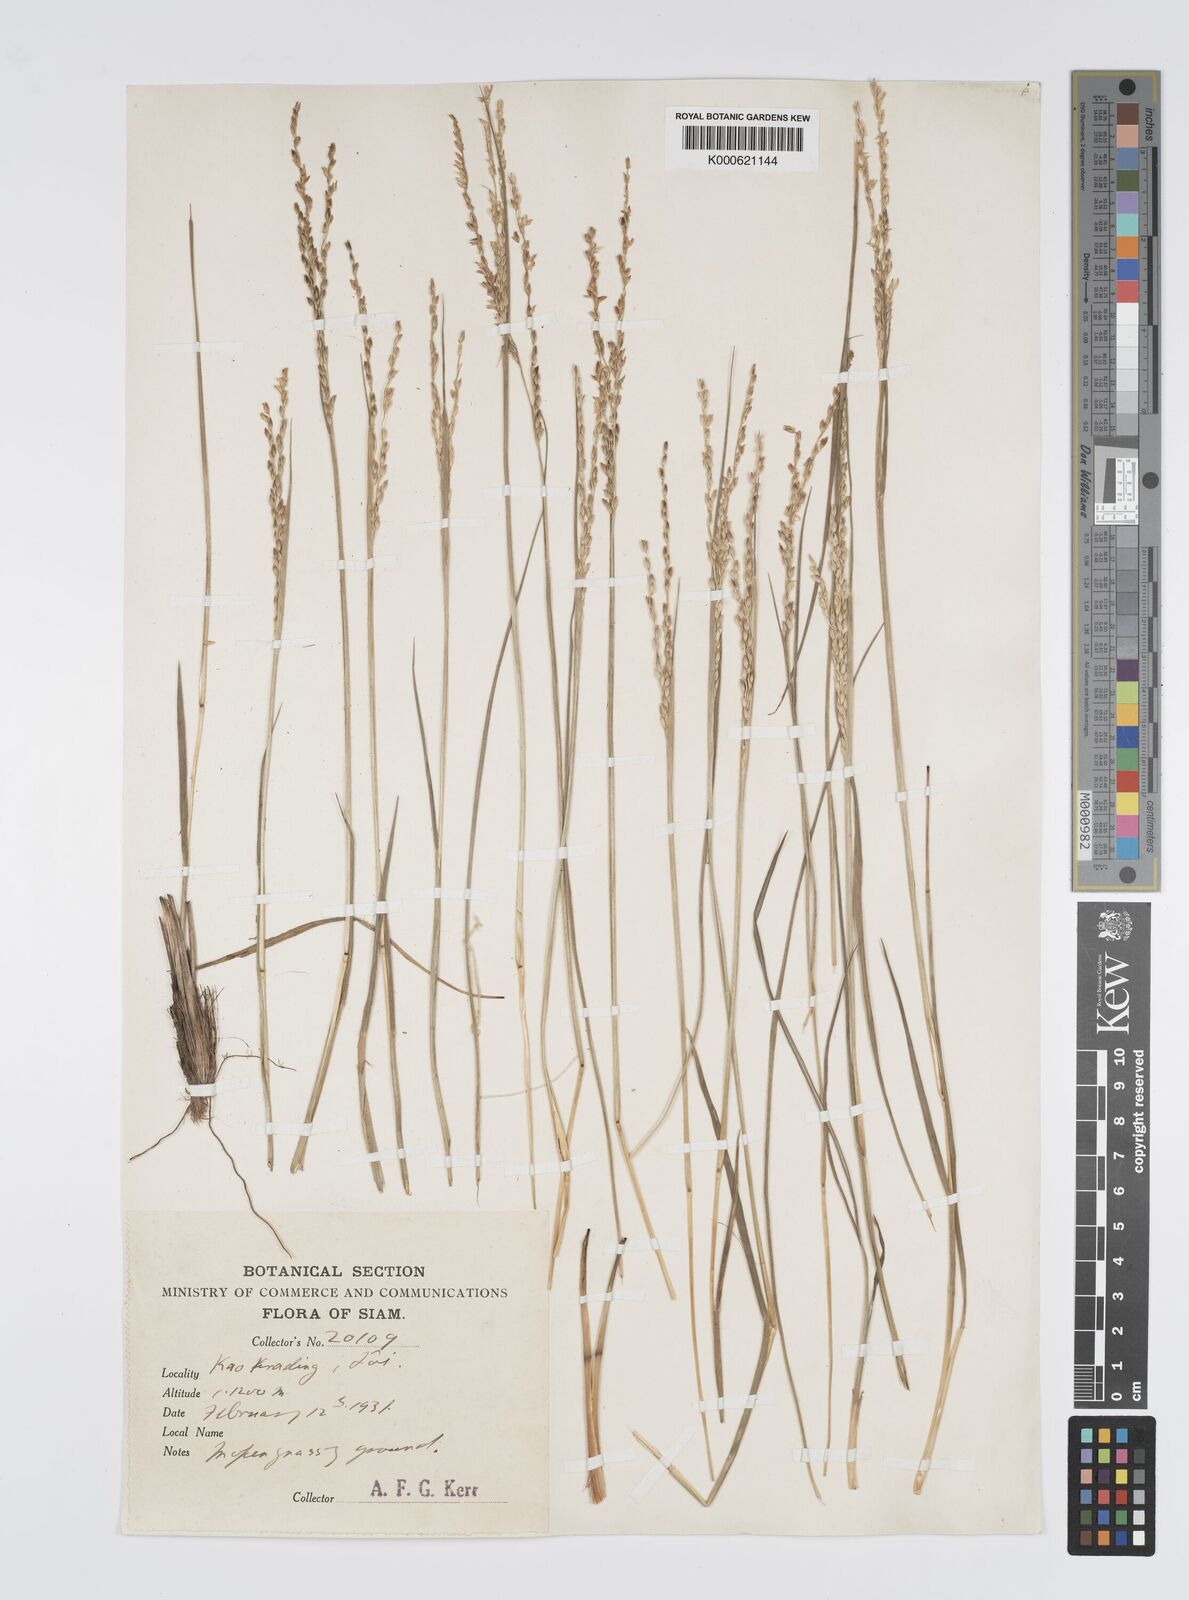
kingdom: Plantae
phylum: Tracheophyta
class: Liliopsida
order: Poales
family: Poaceae
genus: Digitaria
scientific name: Digitaria setifolia
